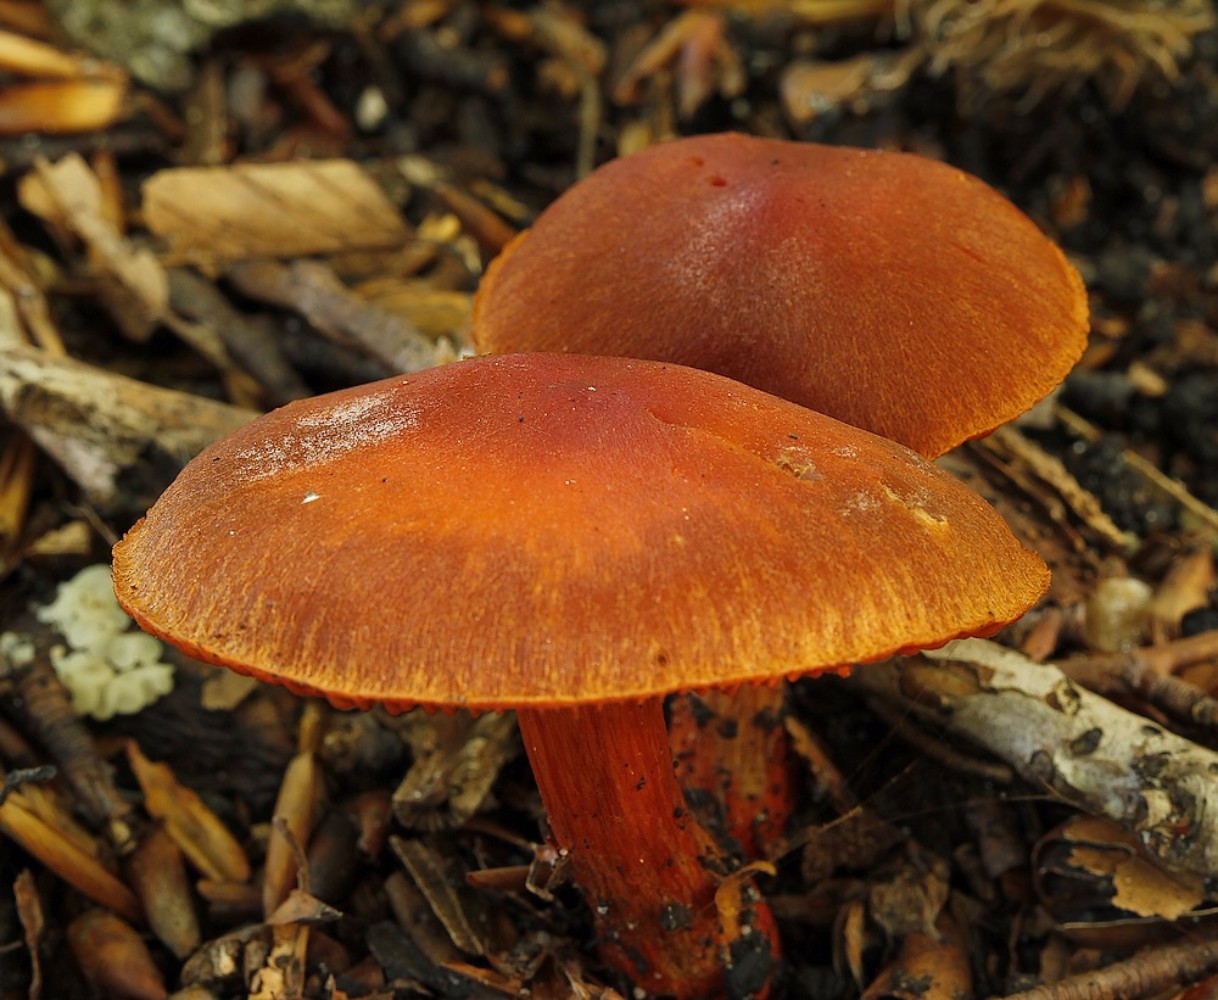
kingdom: Fungi
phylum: Basidiomycota
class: Agaricomycetes
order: Agaricales
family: Cortinariaceae
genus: Cortinarius
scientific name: Cortinarius cinnabarinus
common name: cinnober-slørhat
